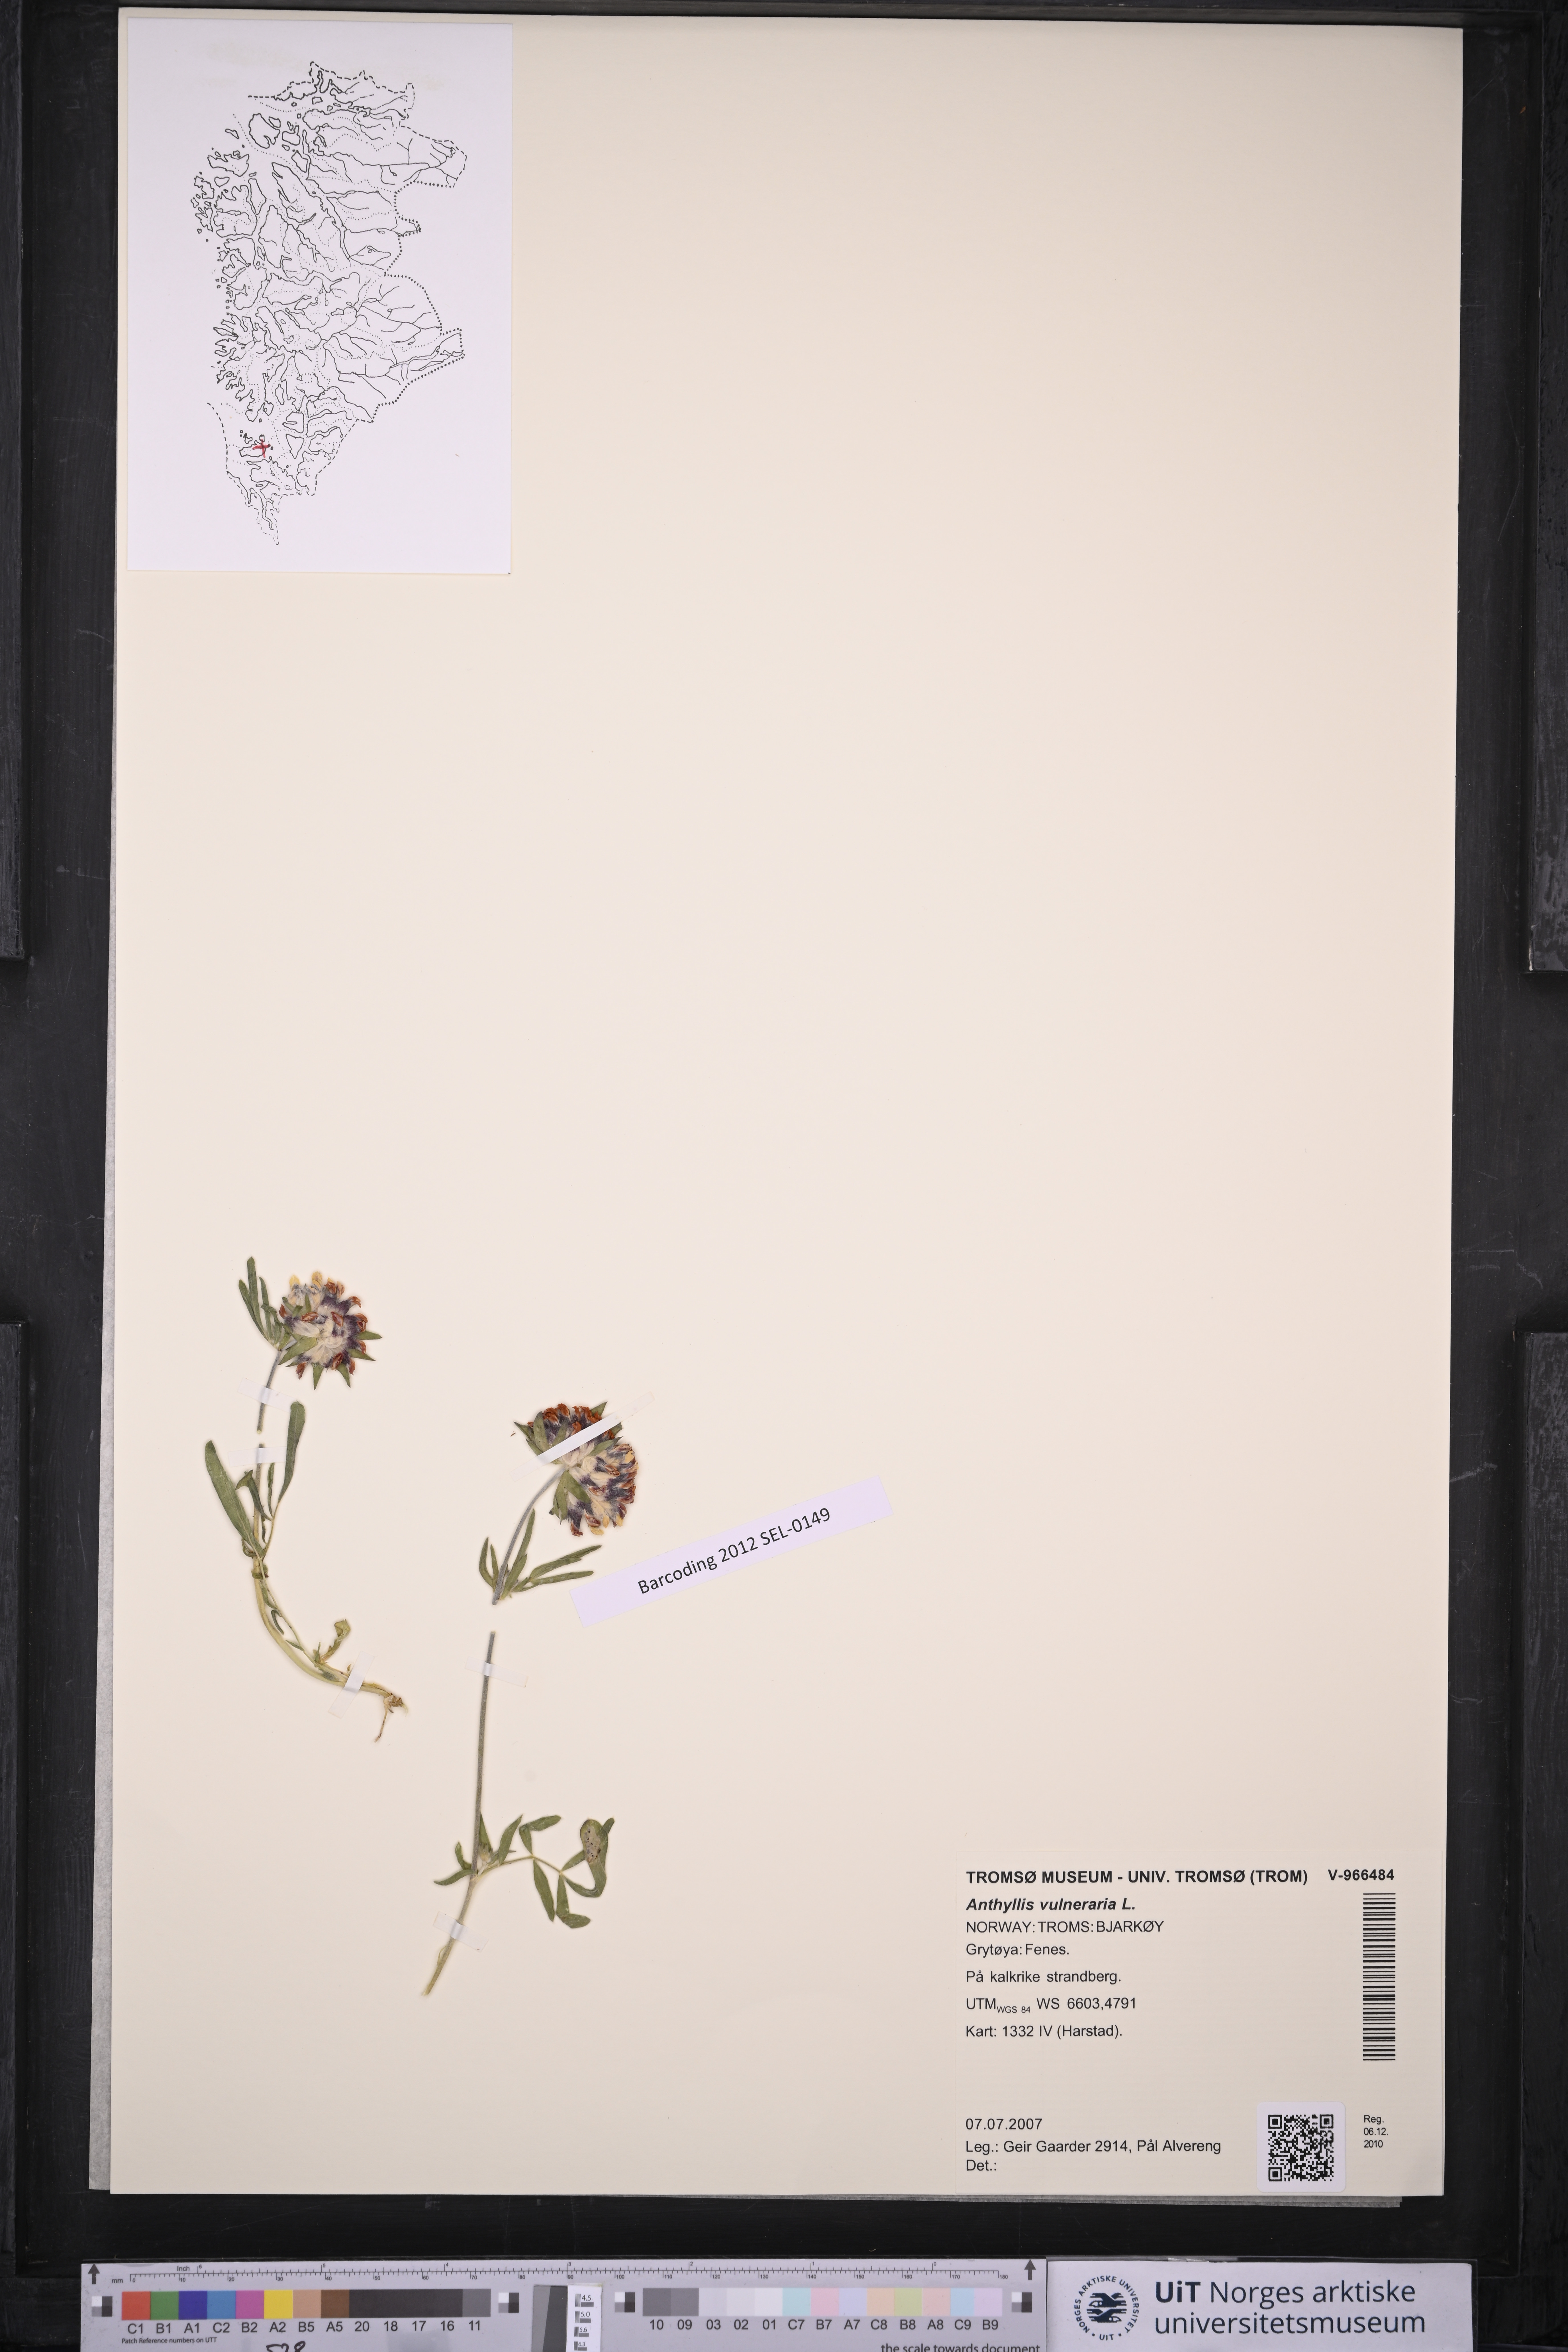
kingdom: Plantae
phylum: Tracheophyta
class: Magnoliopsida
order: Fabales
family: Fabaceae
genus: Anthyllis
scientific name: Anthyllis vulneraria
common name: Kidney vetch
